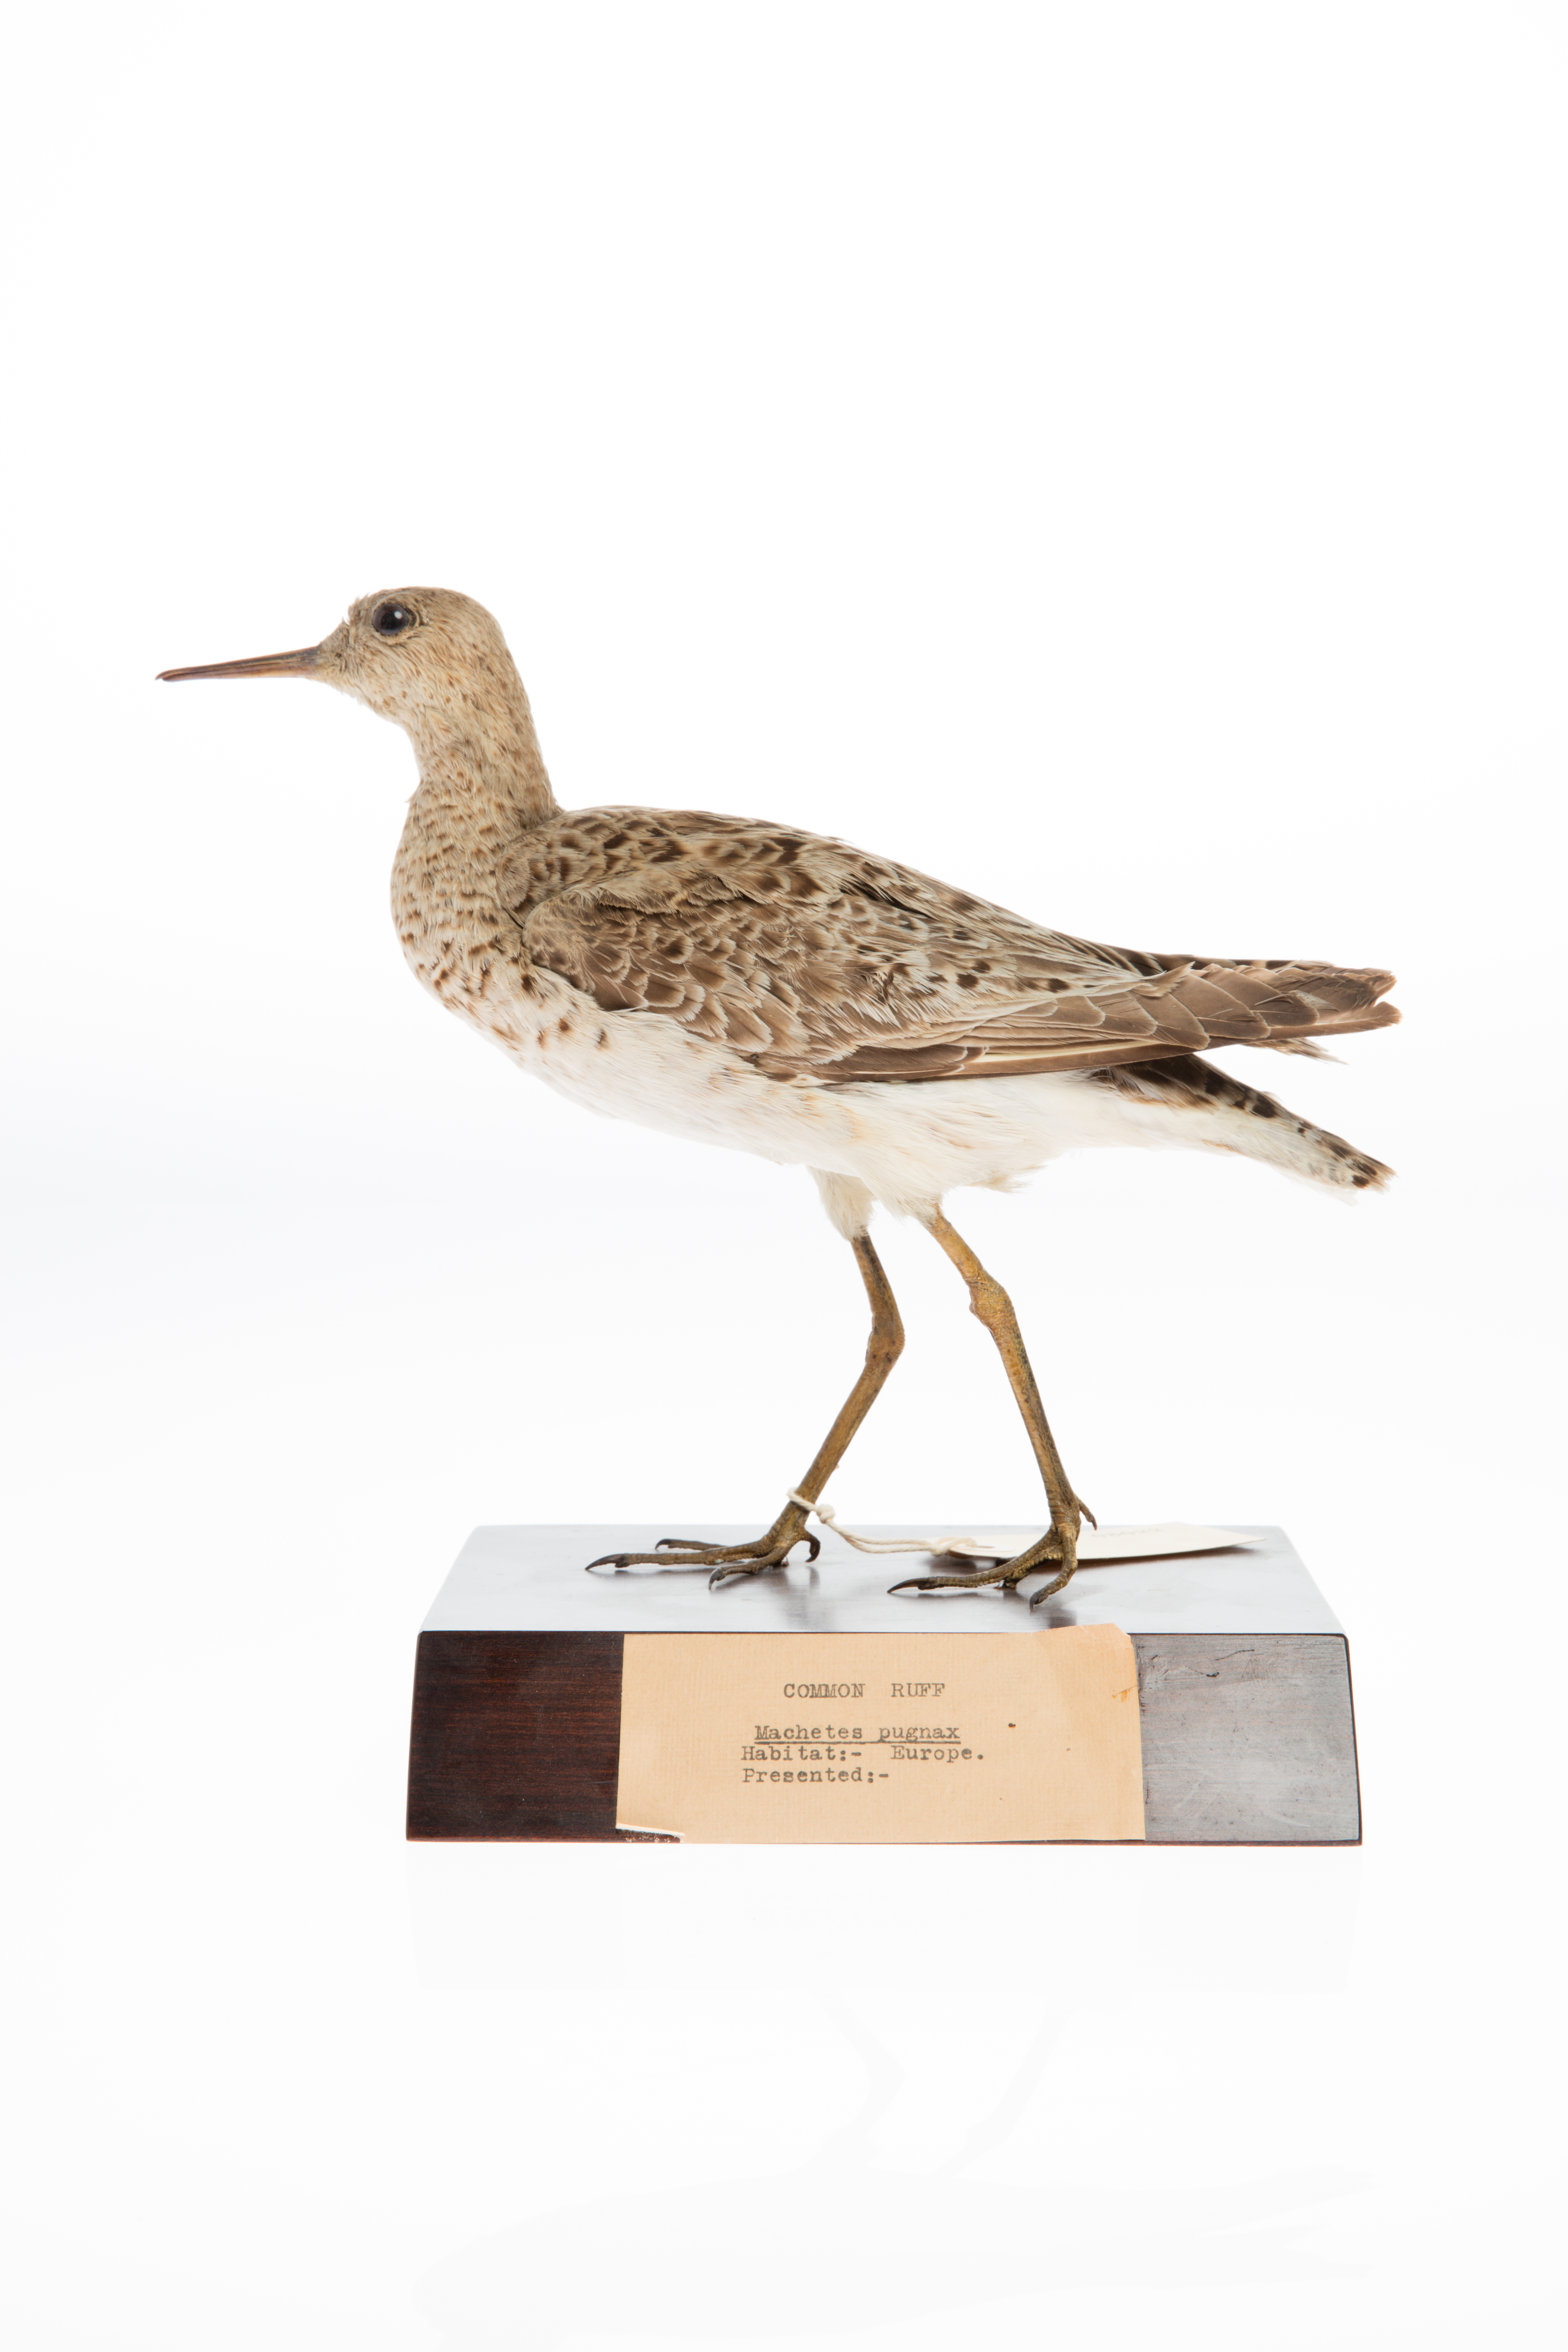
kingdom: Animalia
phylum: Chordata
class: Aves
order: Charadriiformes
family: Scolopacidae
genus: Calidris
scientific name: Calidris pugnax
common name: Ruff
